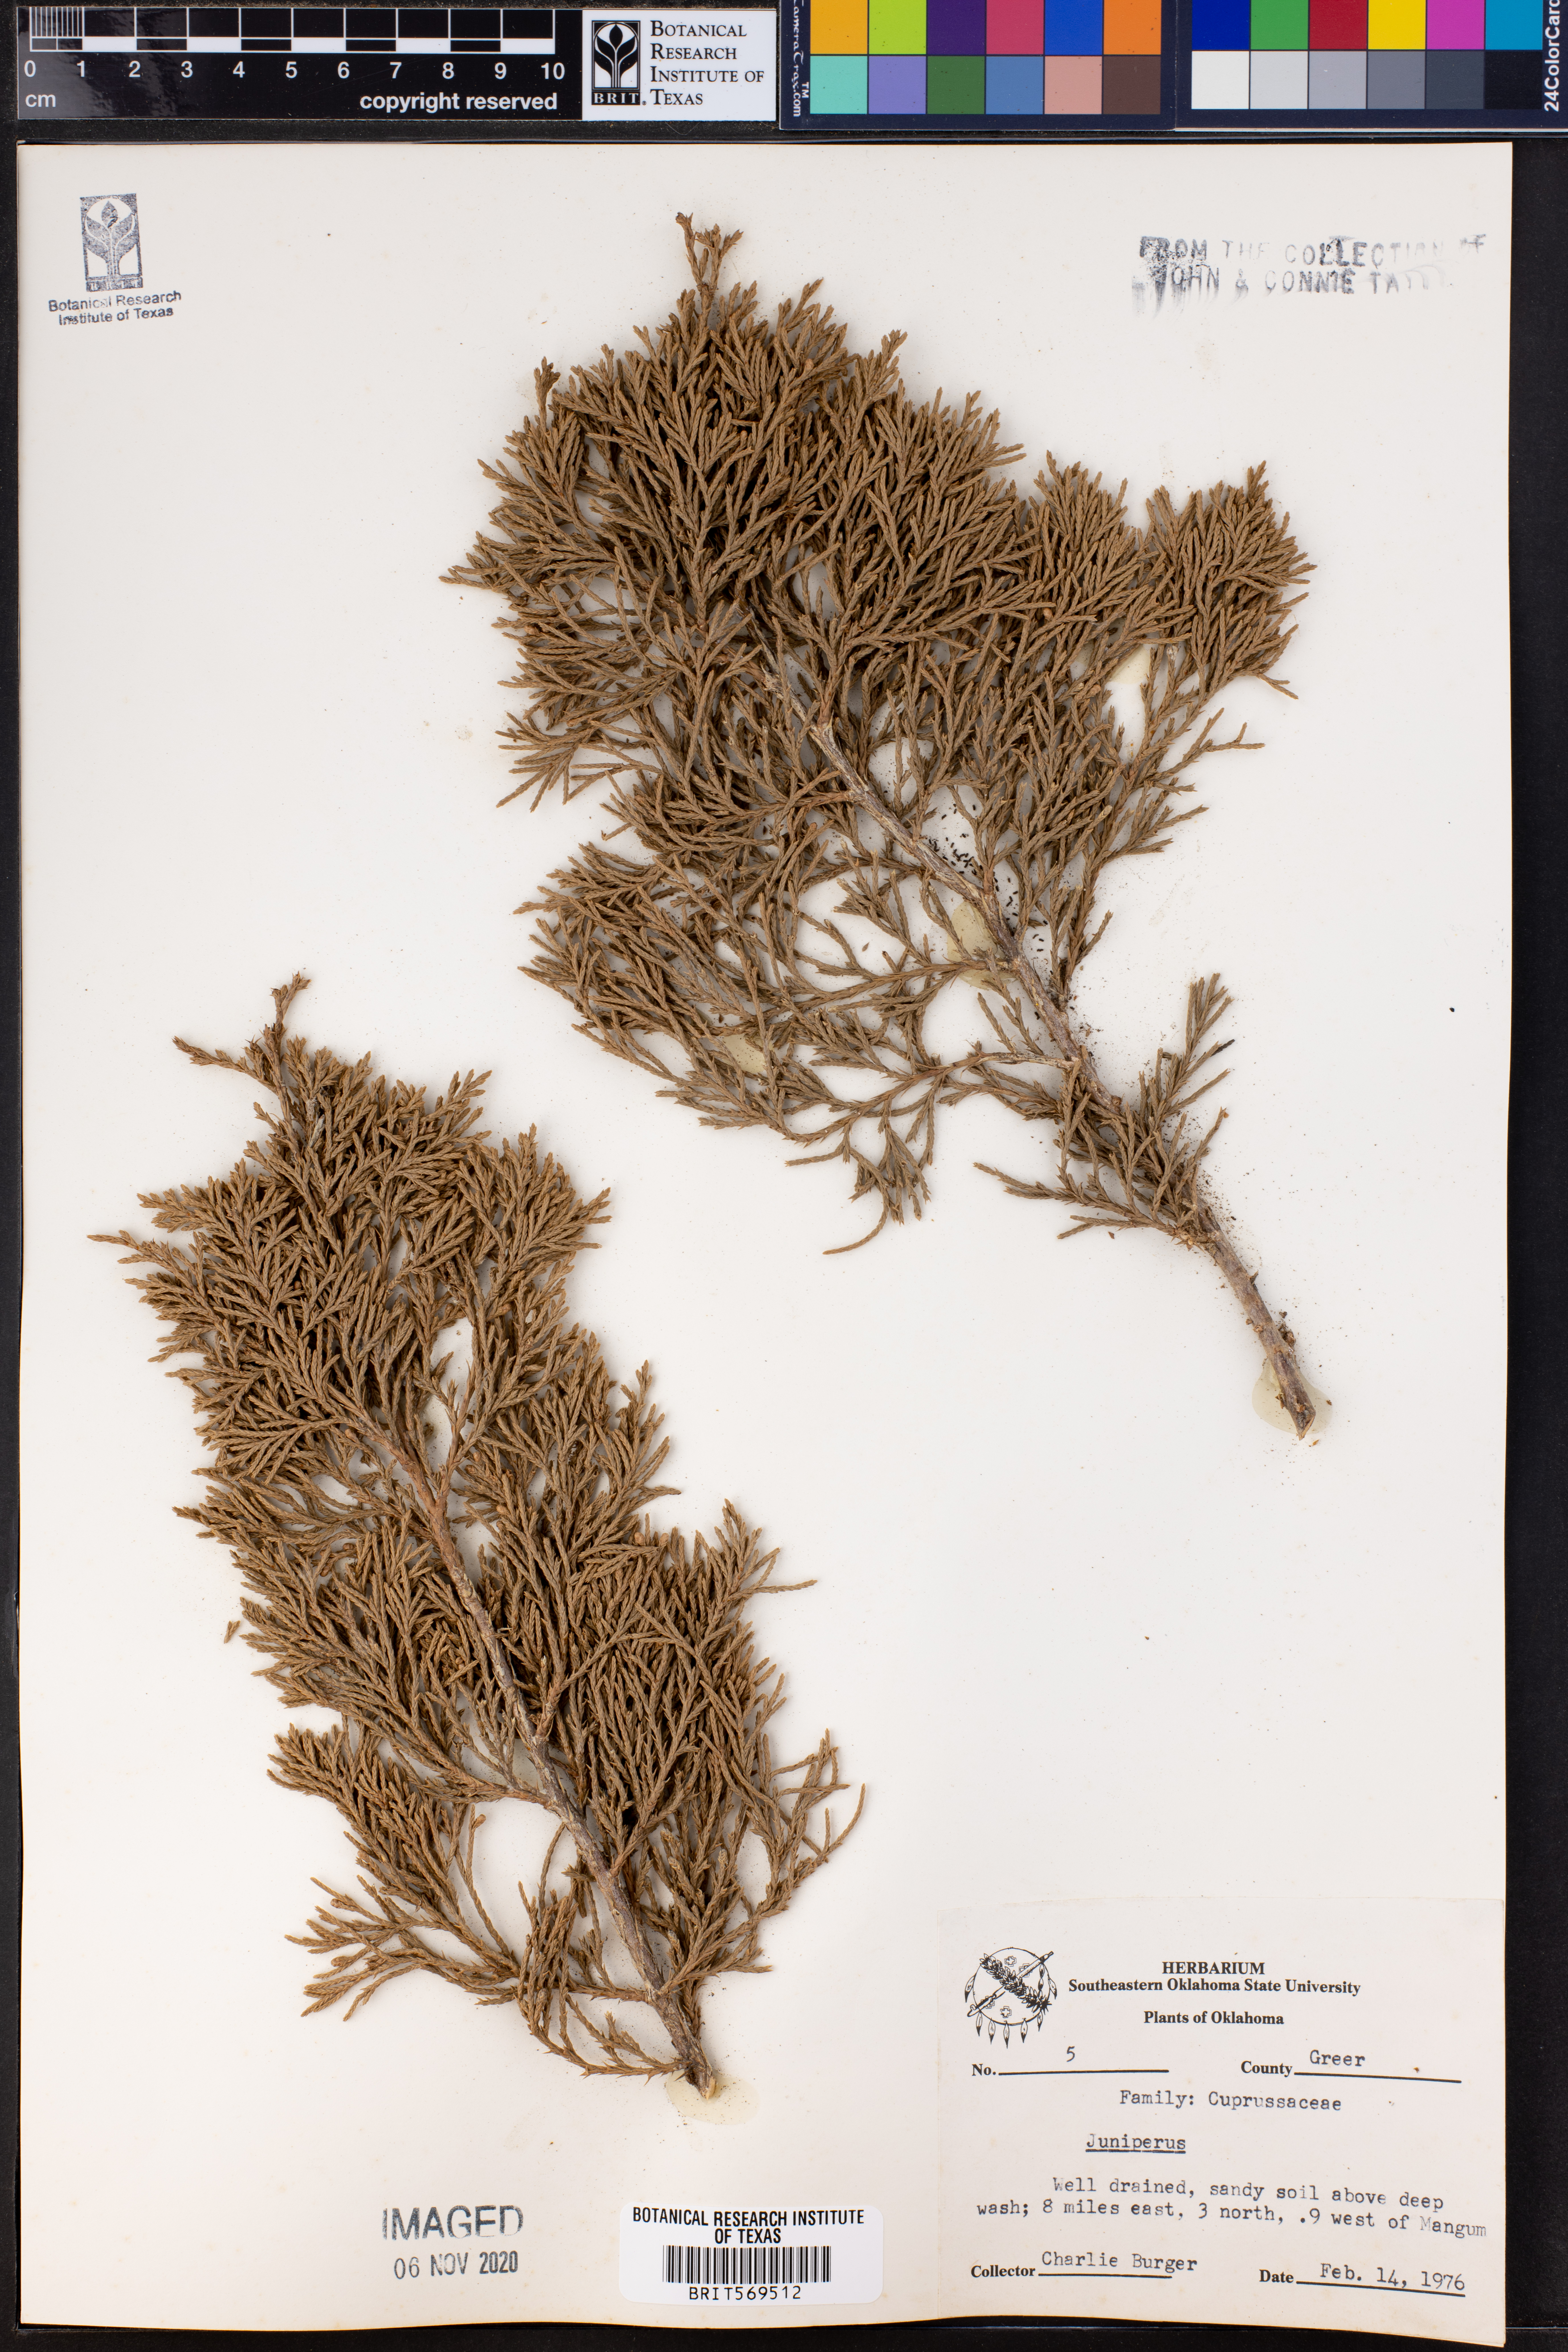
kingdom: Plantae
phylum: Tracheophyta
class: Pinopsida
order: Pinales
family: Cupressaceae
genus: Juniperus
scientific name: Juniperus
